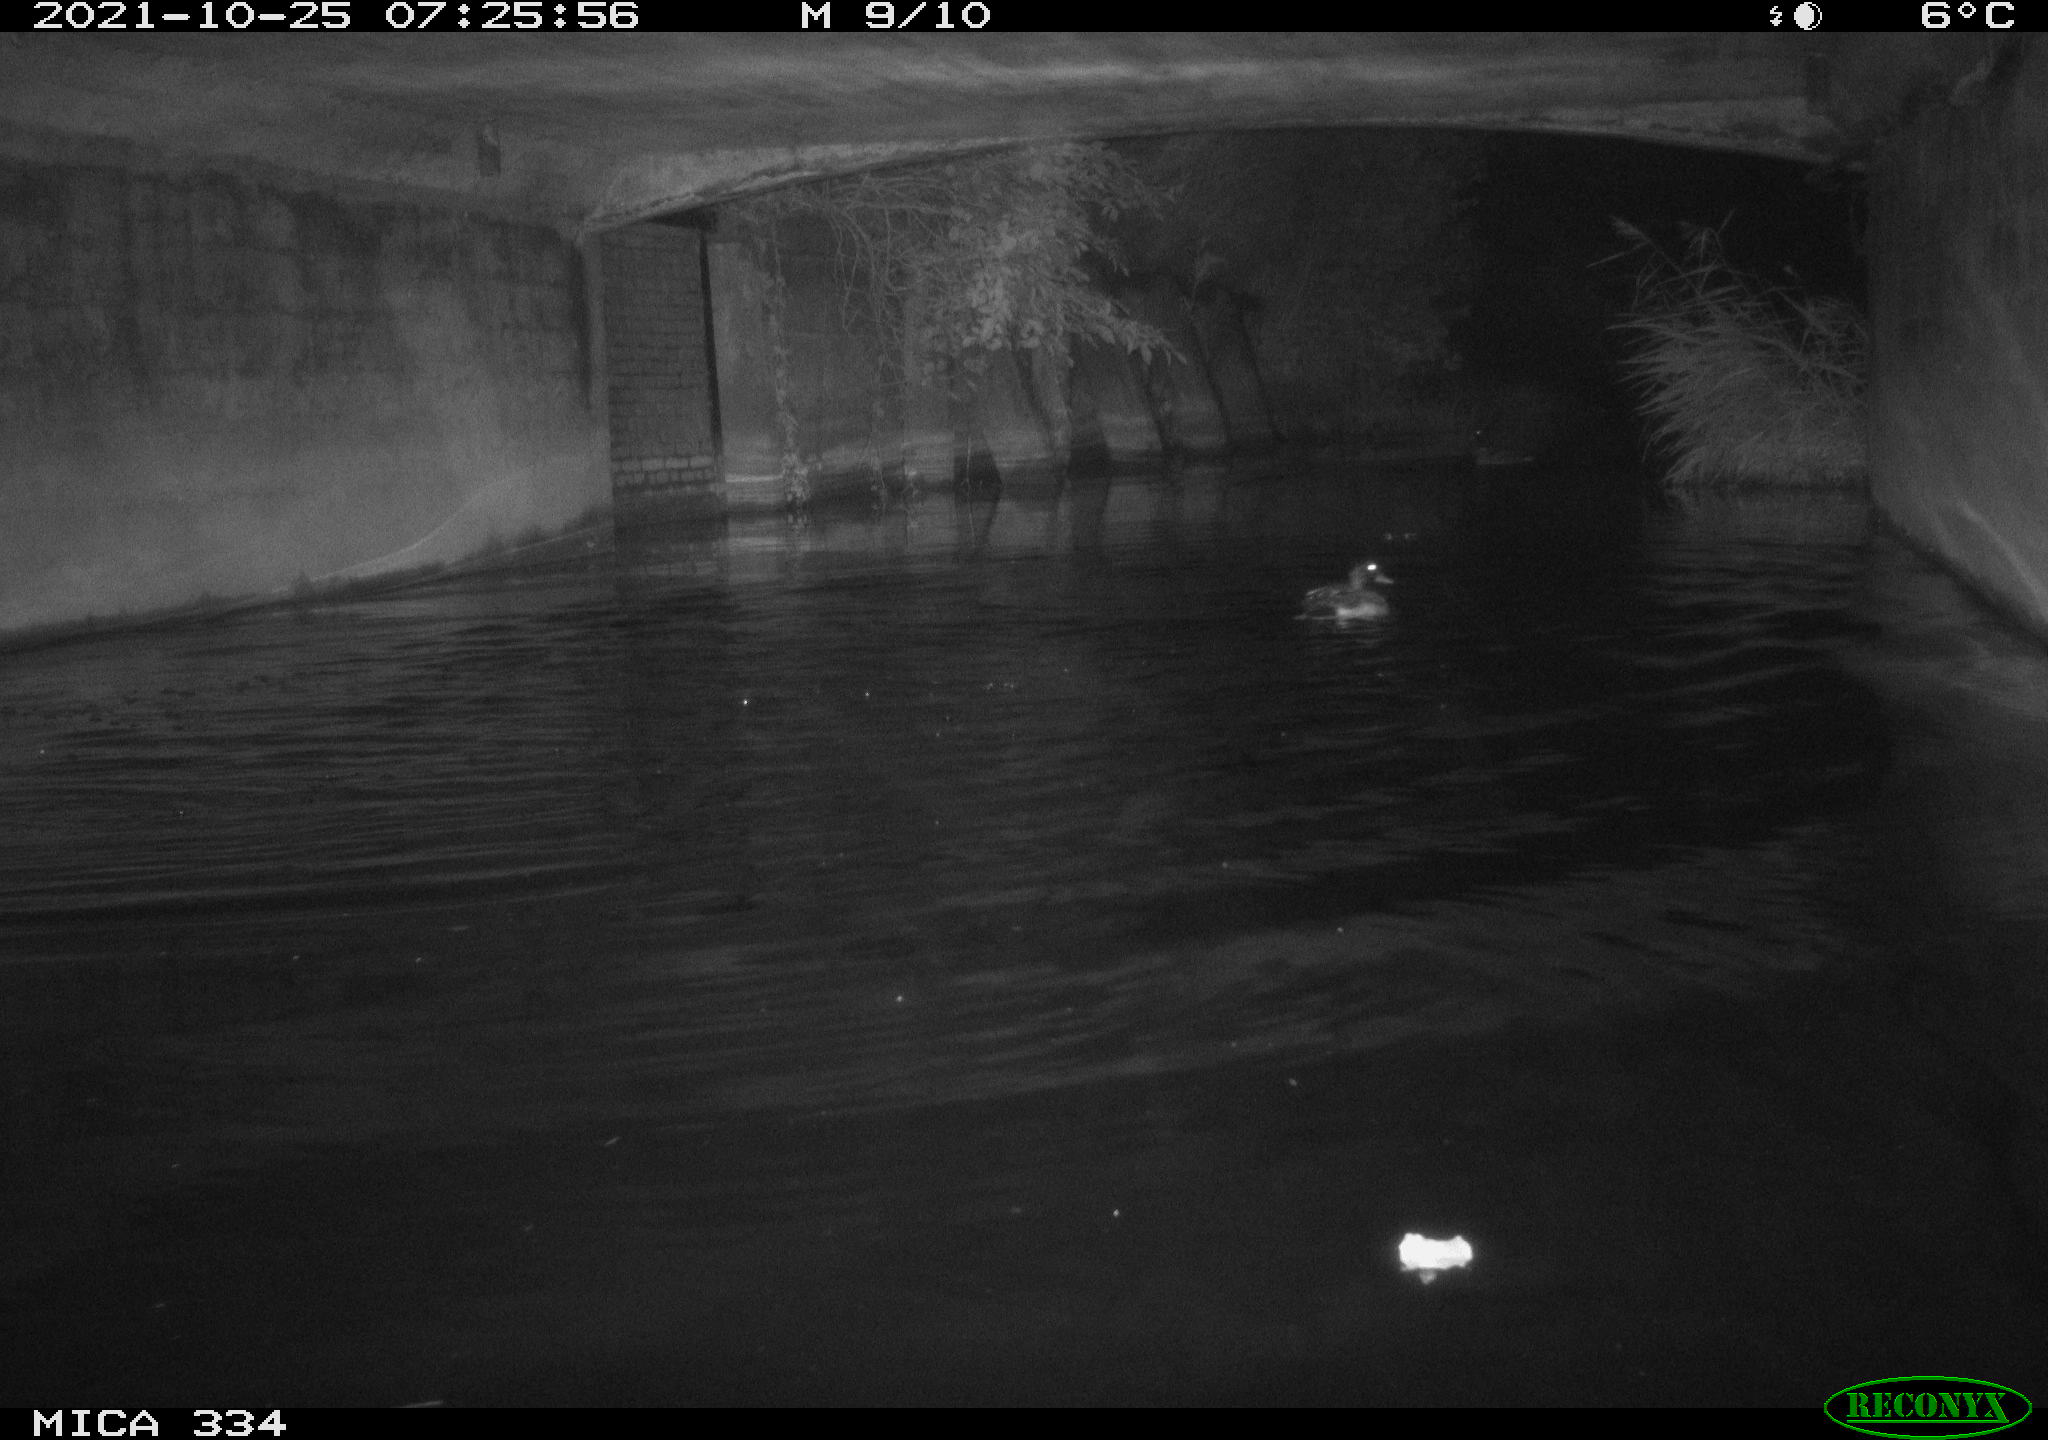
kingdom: Animalia
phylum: Chordata
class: Aves
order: Anseriformes
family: Anatidae
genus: Anas
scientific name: Anas platyrhynchos
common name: Mallard
